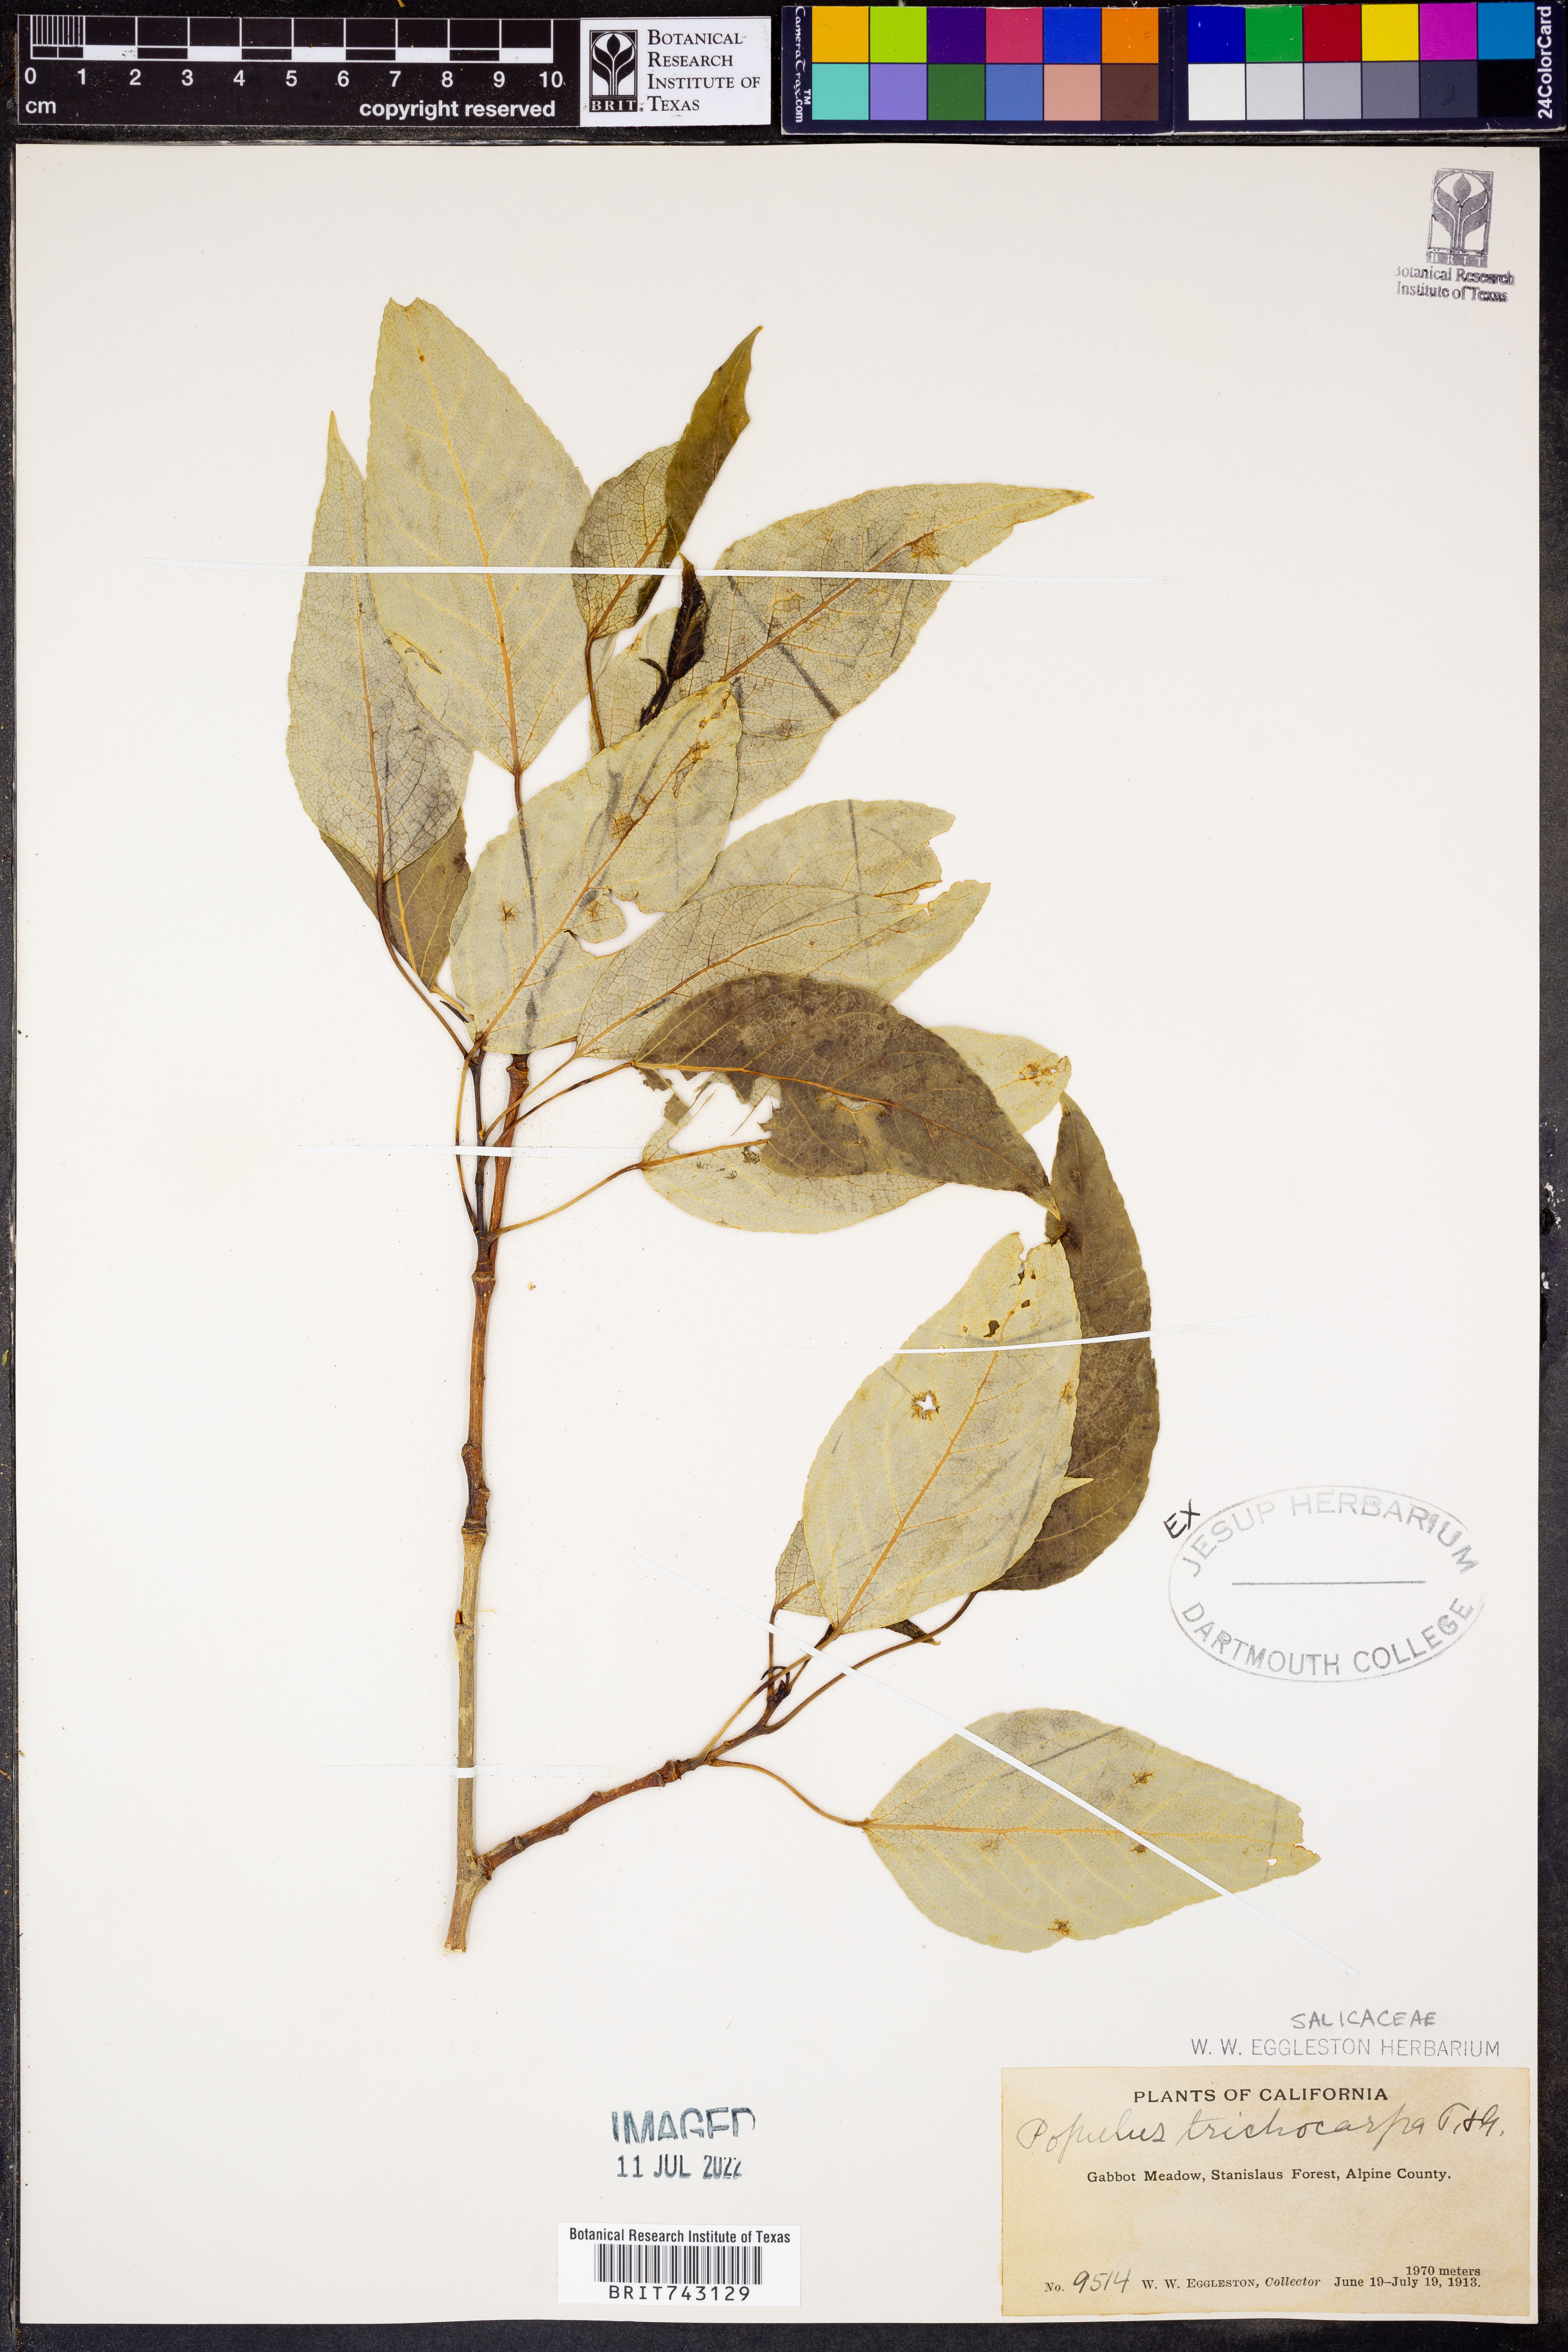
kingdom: Plantae
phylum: Tracheophyta
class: Magnoliopsida
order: Malpighiales
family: Salicaceae
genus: Populus
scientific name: Populus trichocarpa
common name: Black cottonwood
